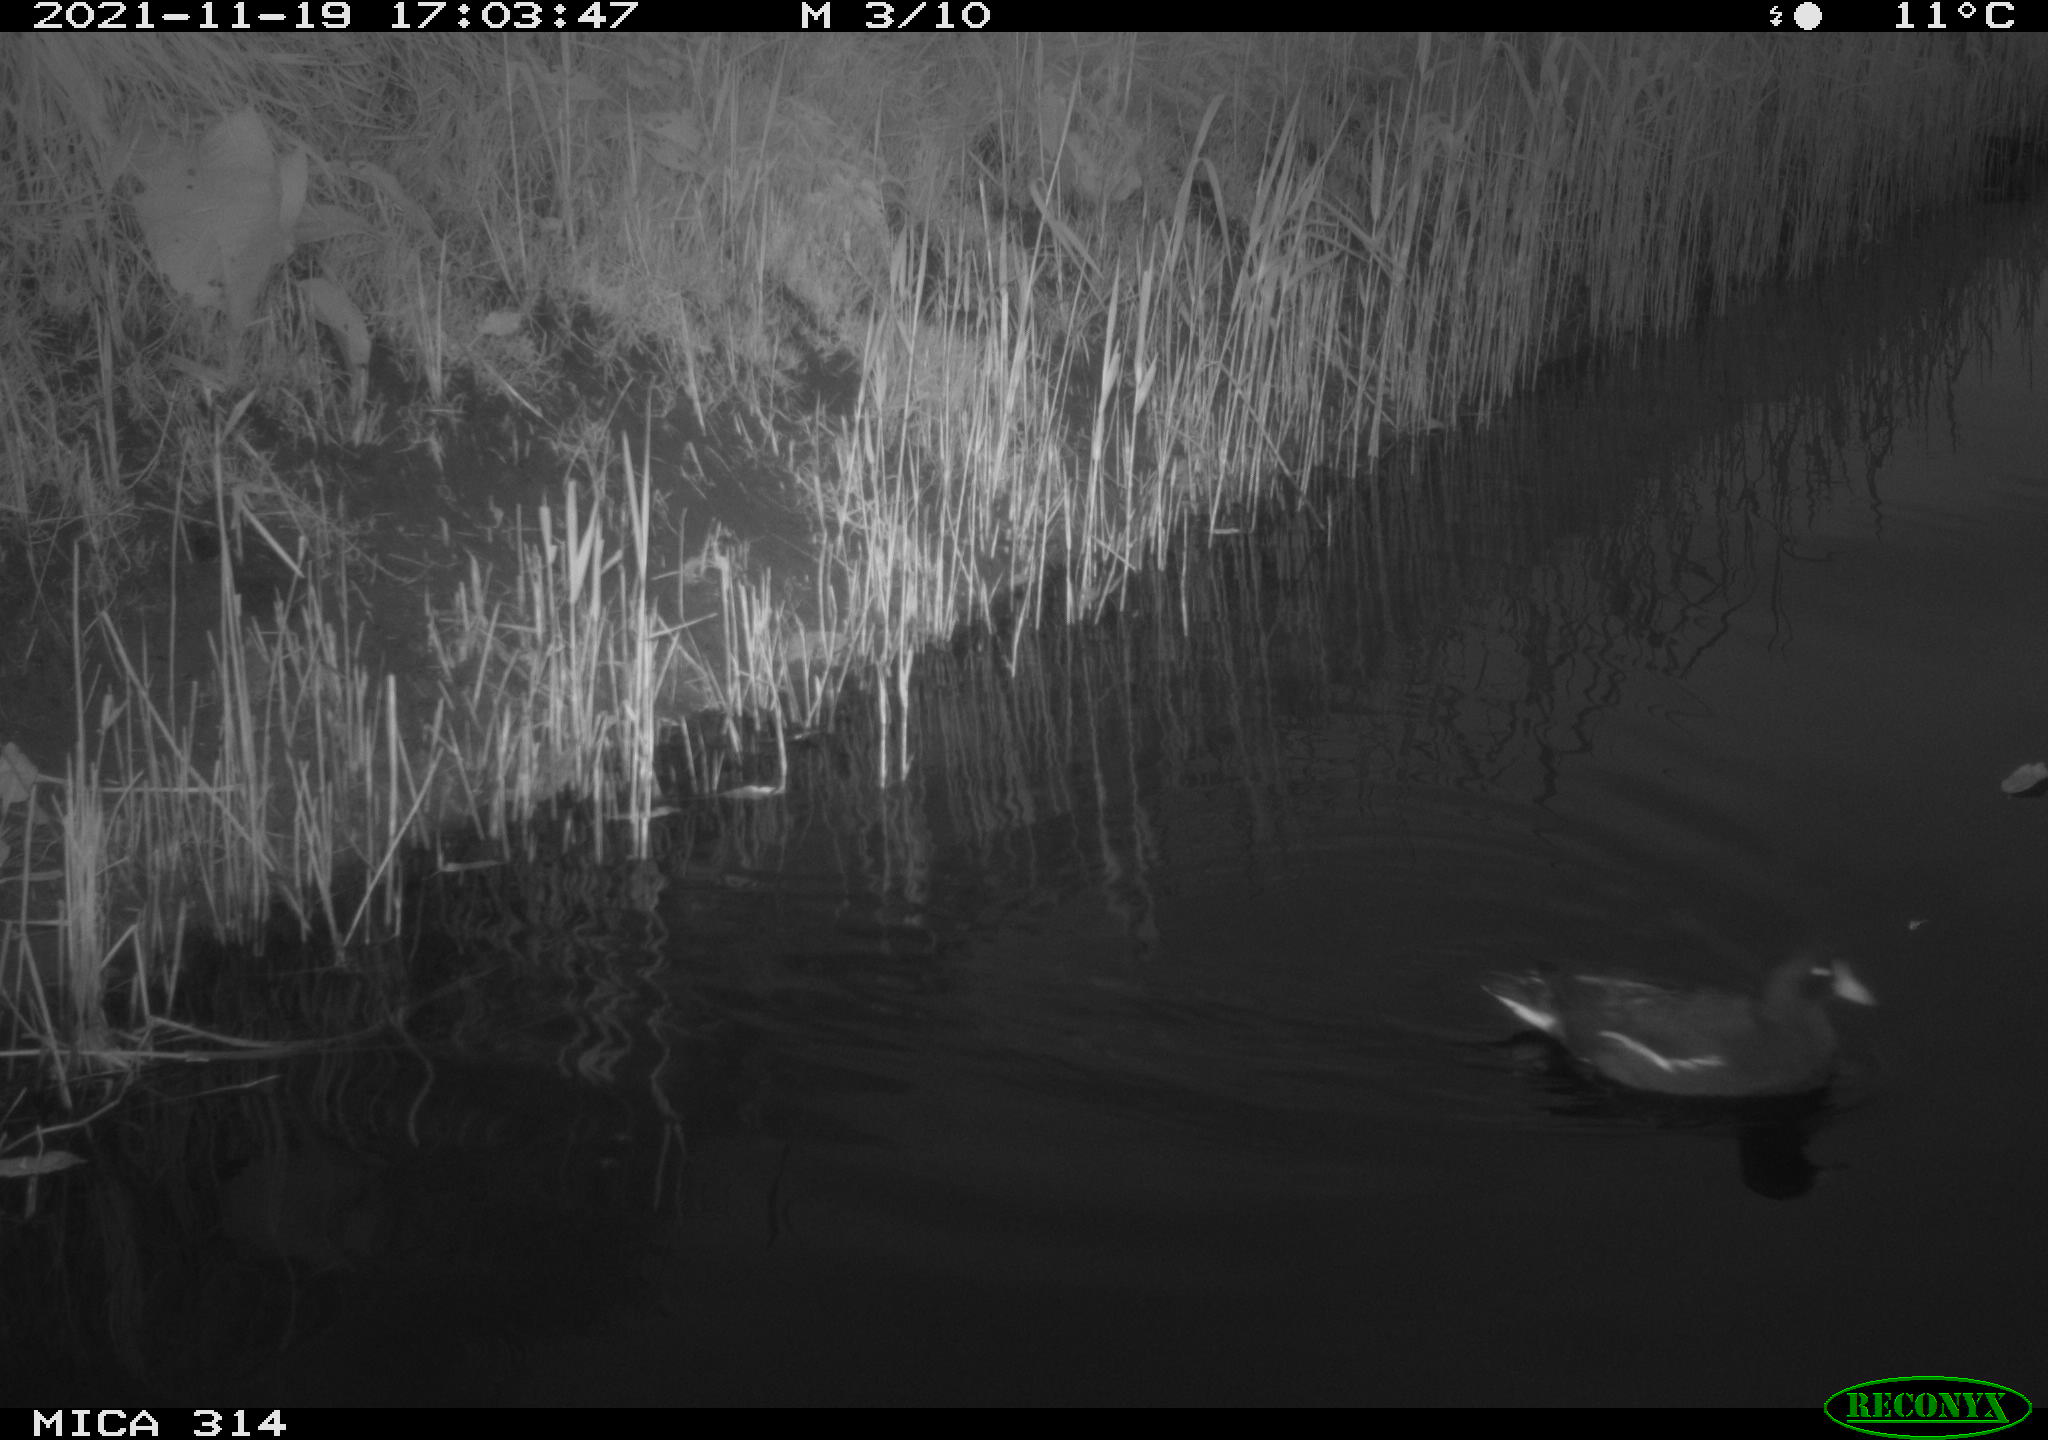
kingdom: Animalia
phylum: Chordata
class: Aves
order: Gruiformes
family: Rallidae
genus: Gallinula
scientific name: Gallinula chloropus
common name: Common moorhen
